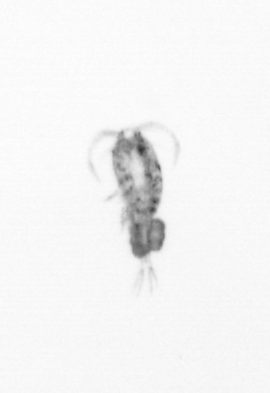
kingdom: Animalia
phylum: Arthropoda
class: Copepoda
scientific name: Copepoda
